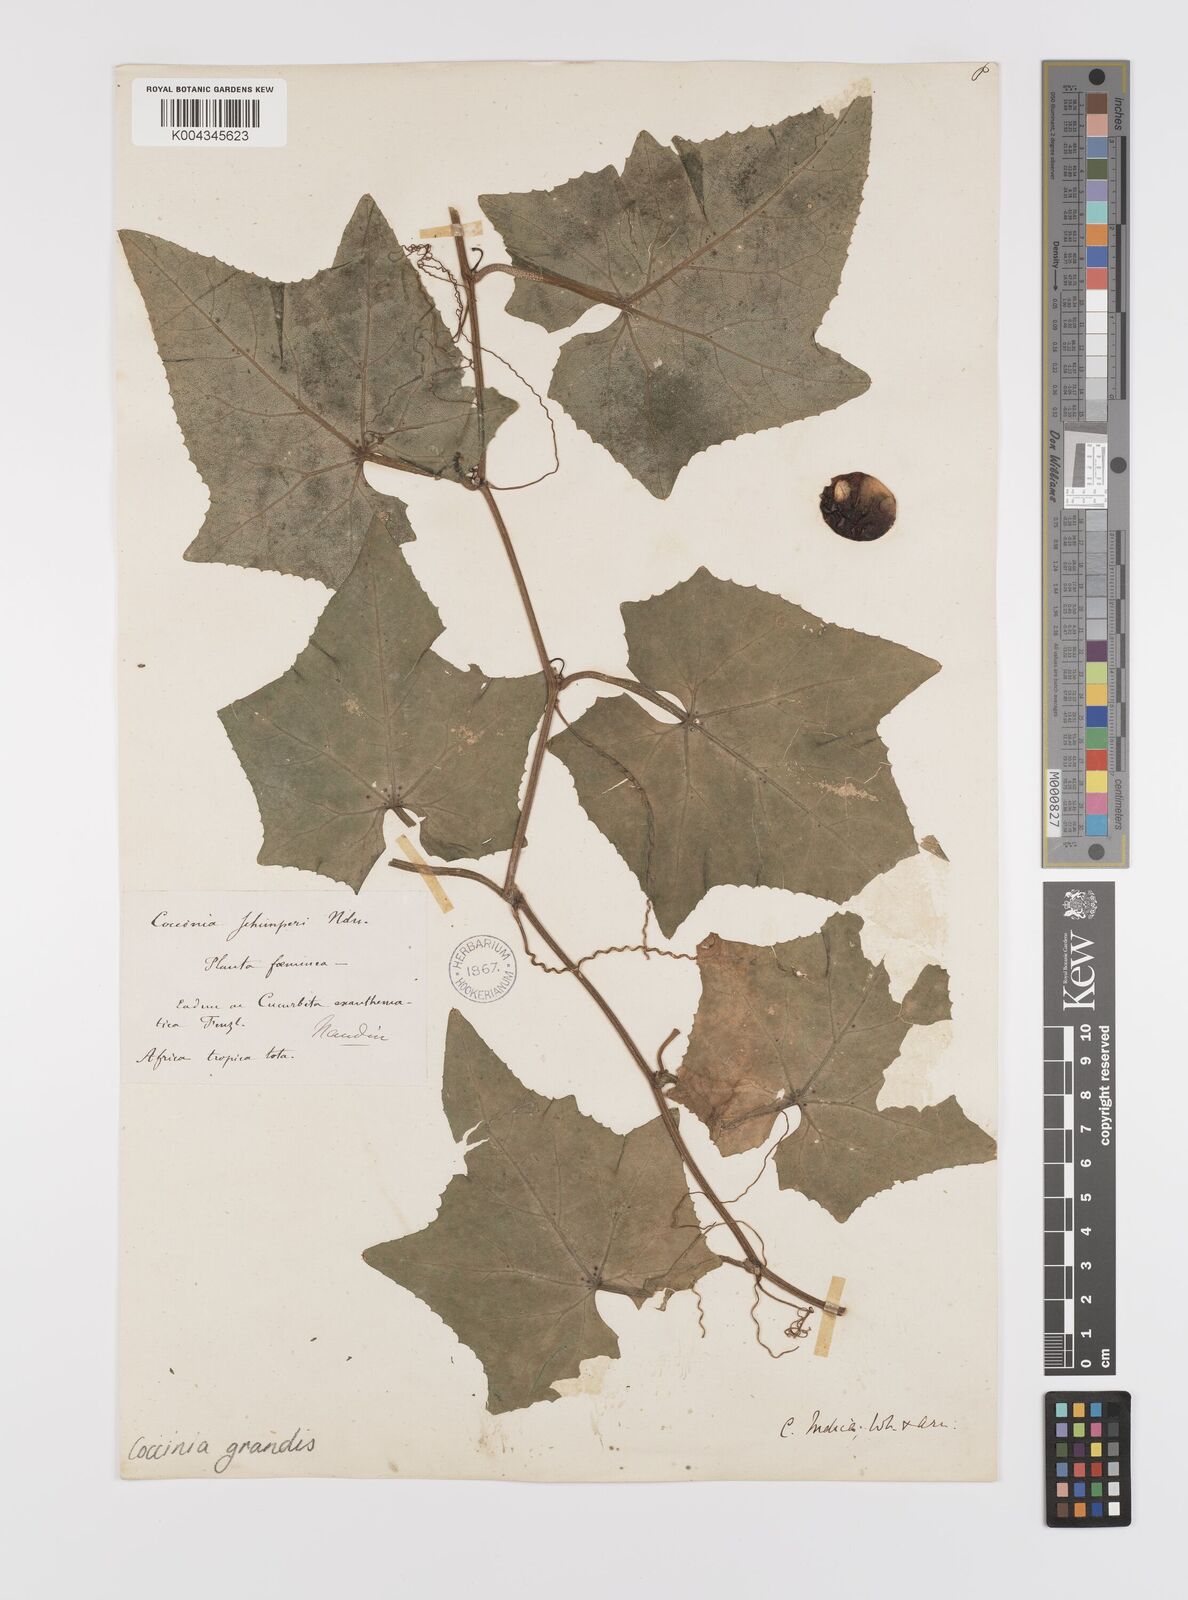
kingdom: Plantae
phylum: Tracheophyta
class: Magnoliopsida
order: Cucurbitales
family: Cucurbitaceae
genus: Coccinia
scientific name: Coccinia grandis
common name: Ivy gourd
